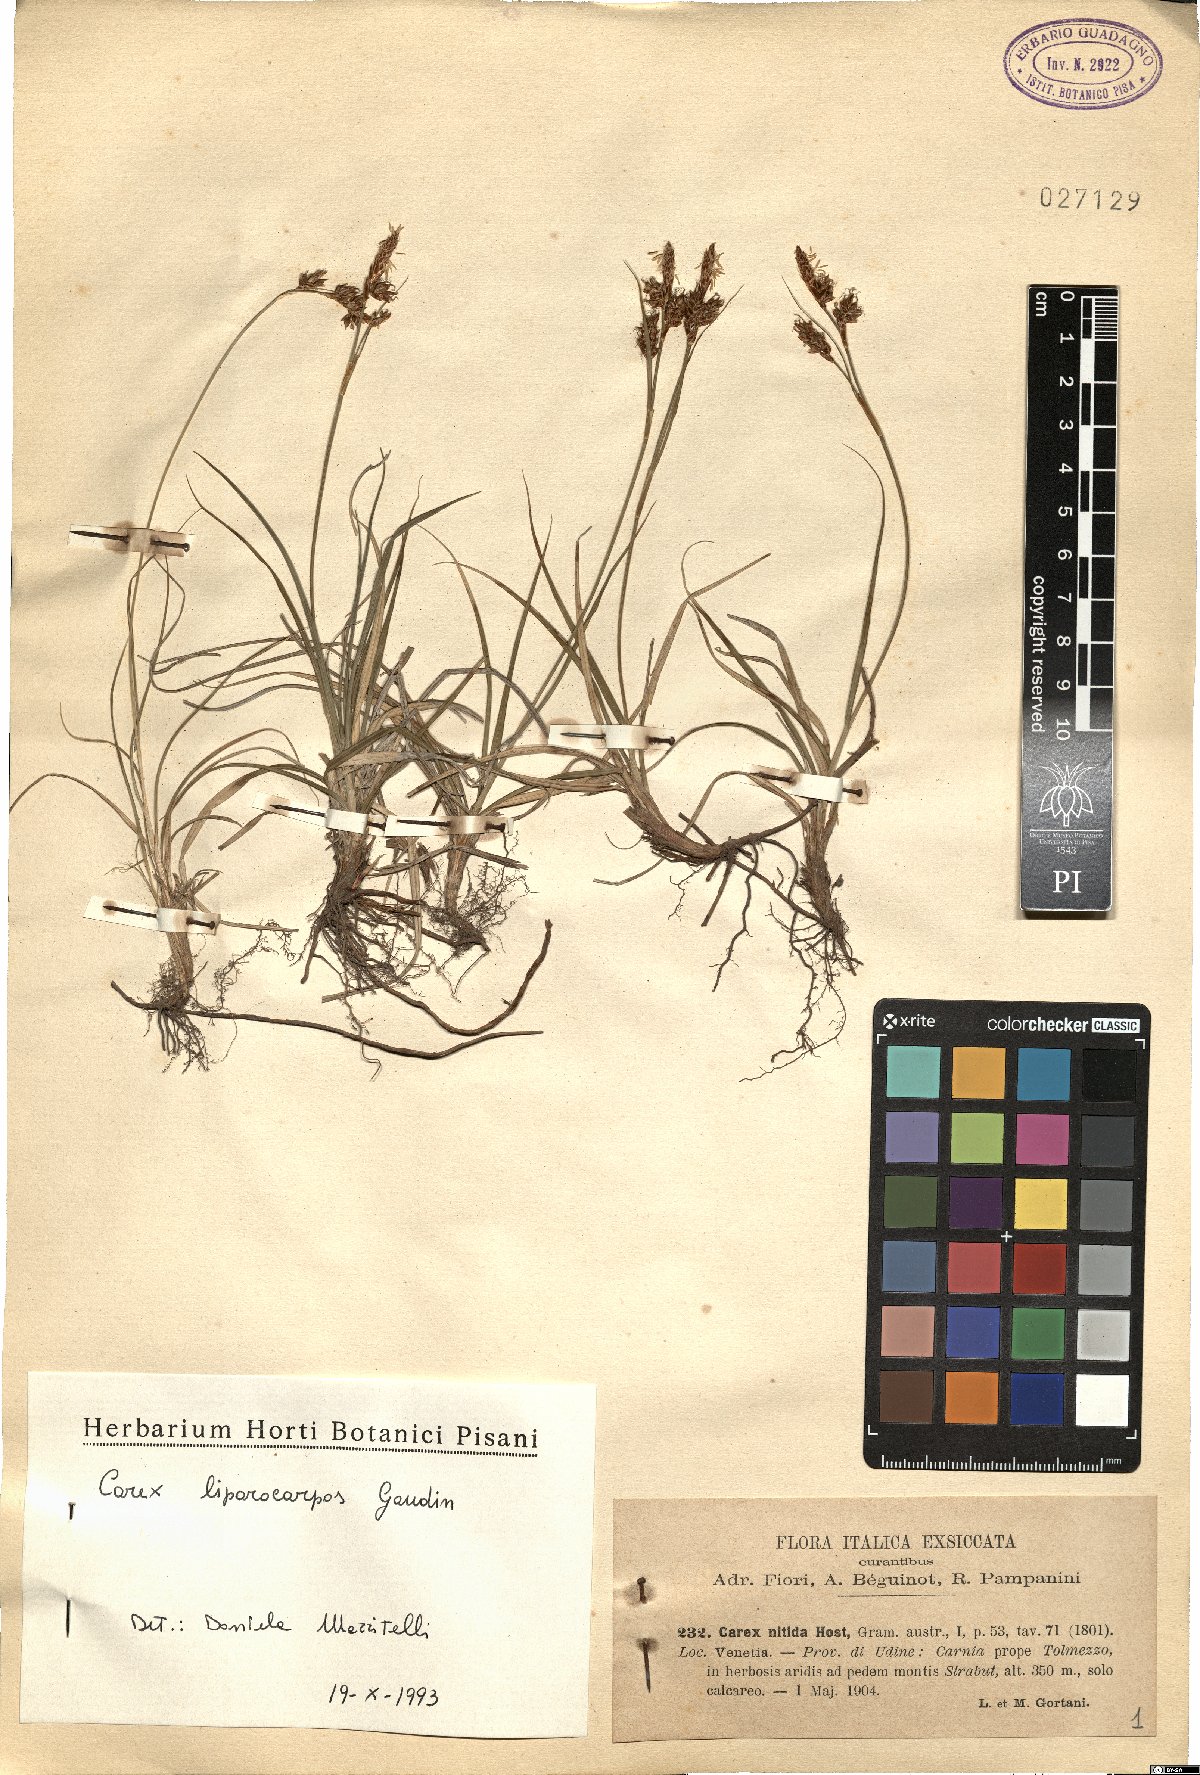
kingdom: Plantae
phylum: Tracheophyta
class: Liliopsida
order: Poales
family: Cyperaceae
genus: Carex
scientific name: Carex liparocarpos
